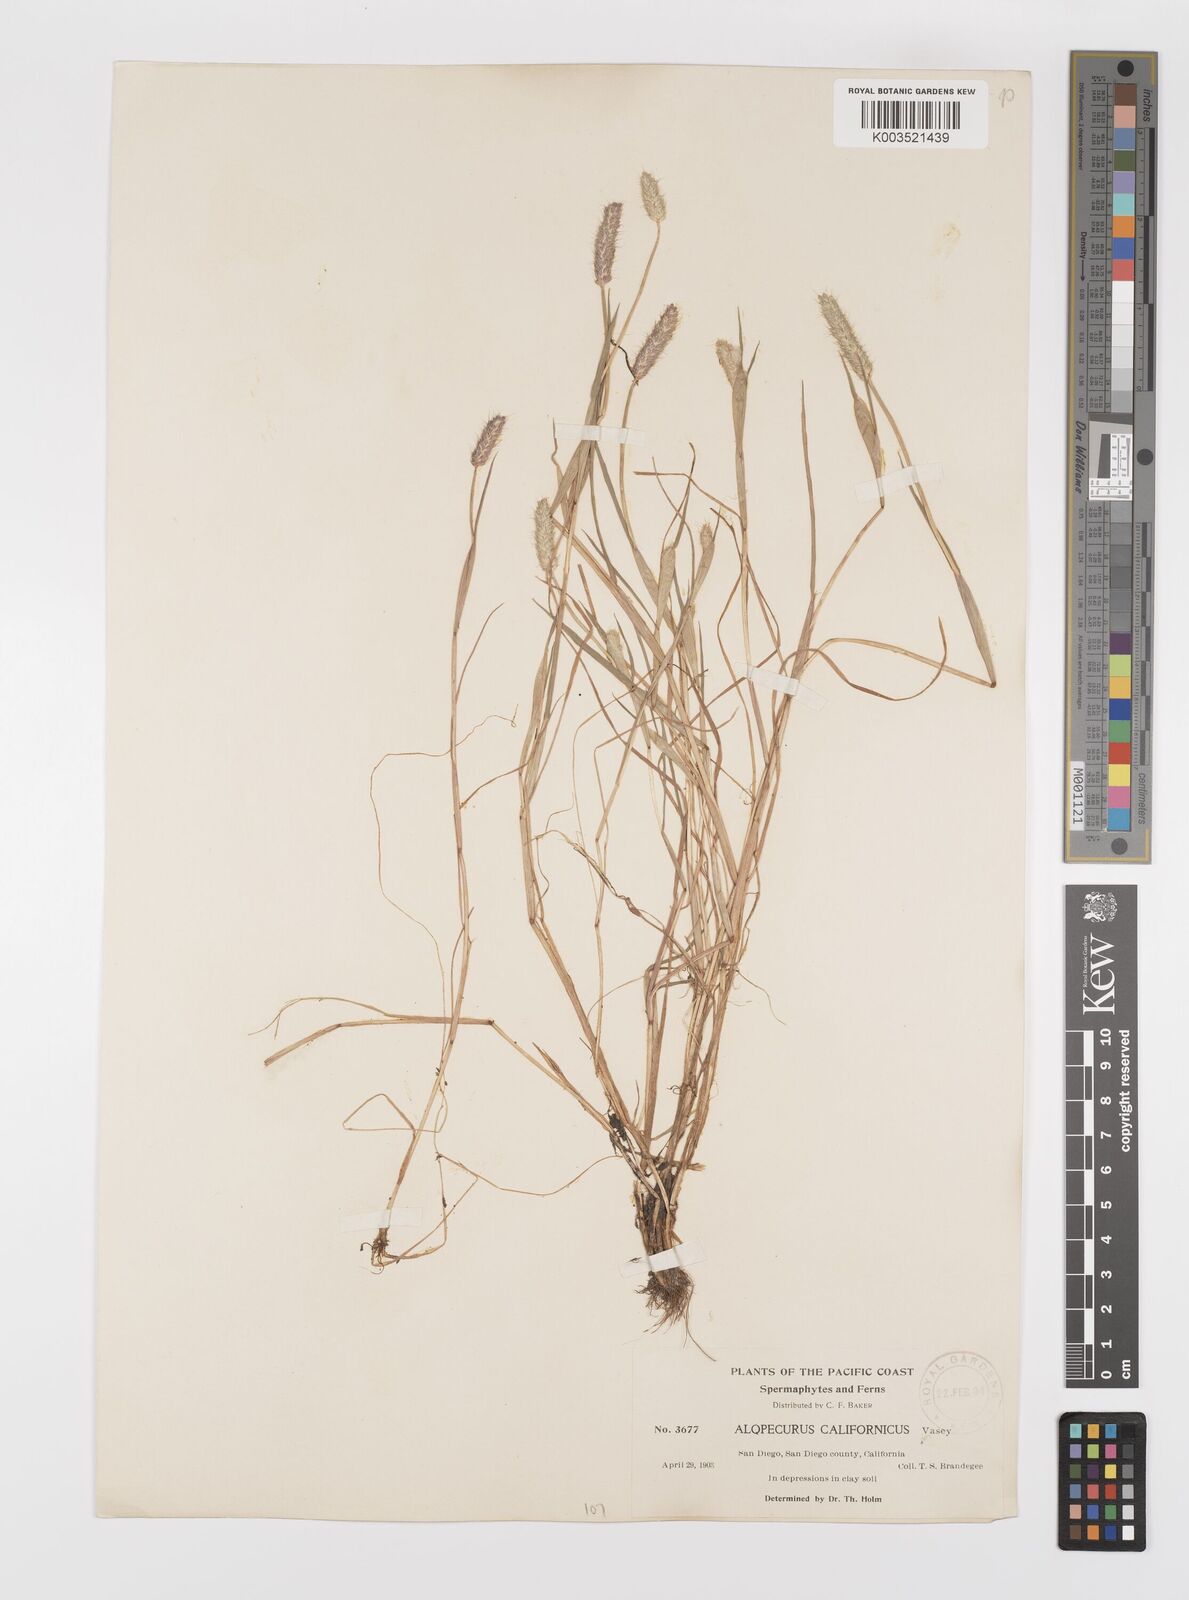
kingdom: Plantae
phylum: Tracheophyta
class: Liliopsida
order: Poales
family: Poaceae
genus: Alopecurus
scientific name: Alopecurus saccatus
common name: Pacific foxtail
